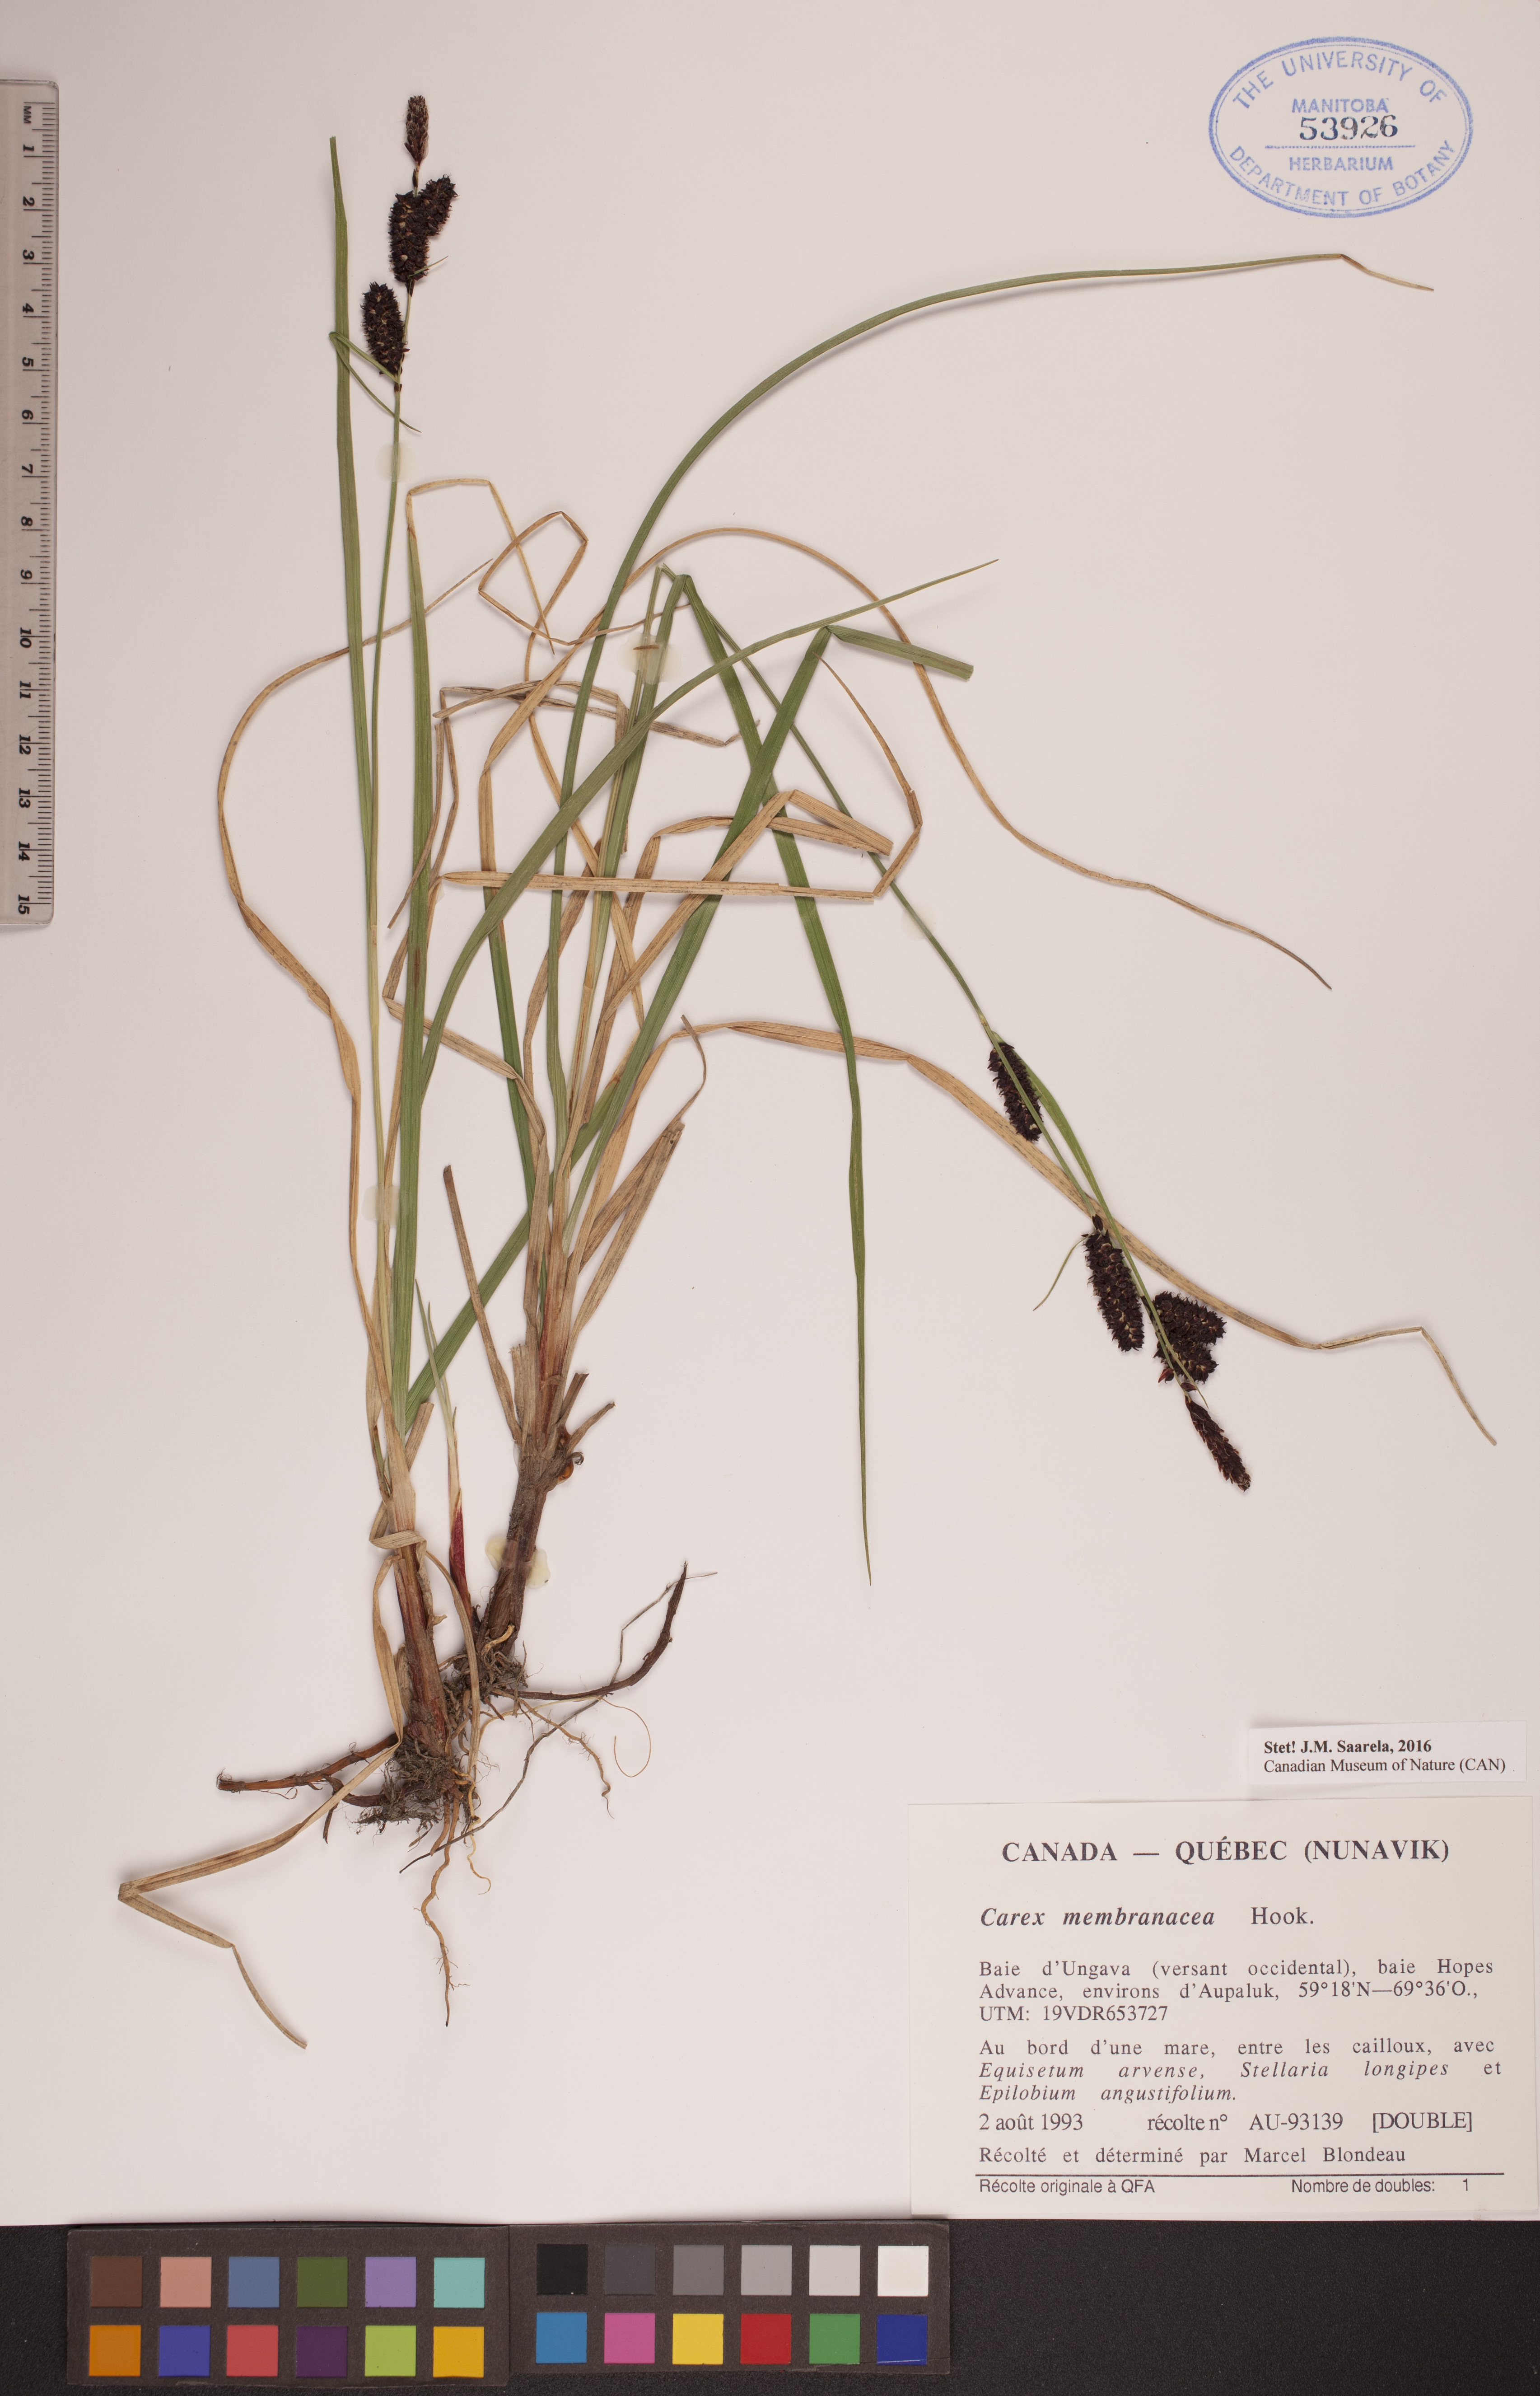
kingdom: Plantae
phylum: Tracheophyta
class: Liliopsida
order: Poales
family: Cyperaceae
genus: Carex
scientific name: Carex membranacea
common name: Fragile sedge
